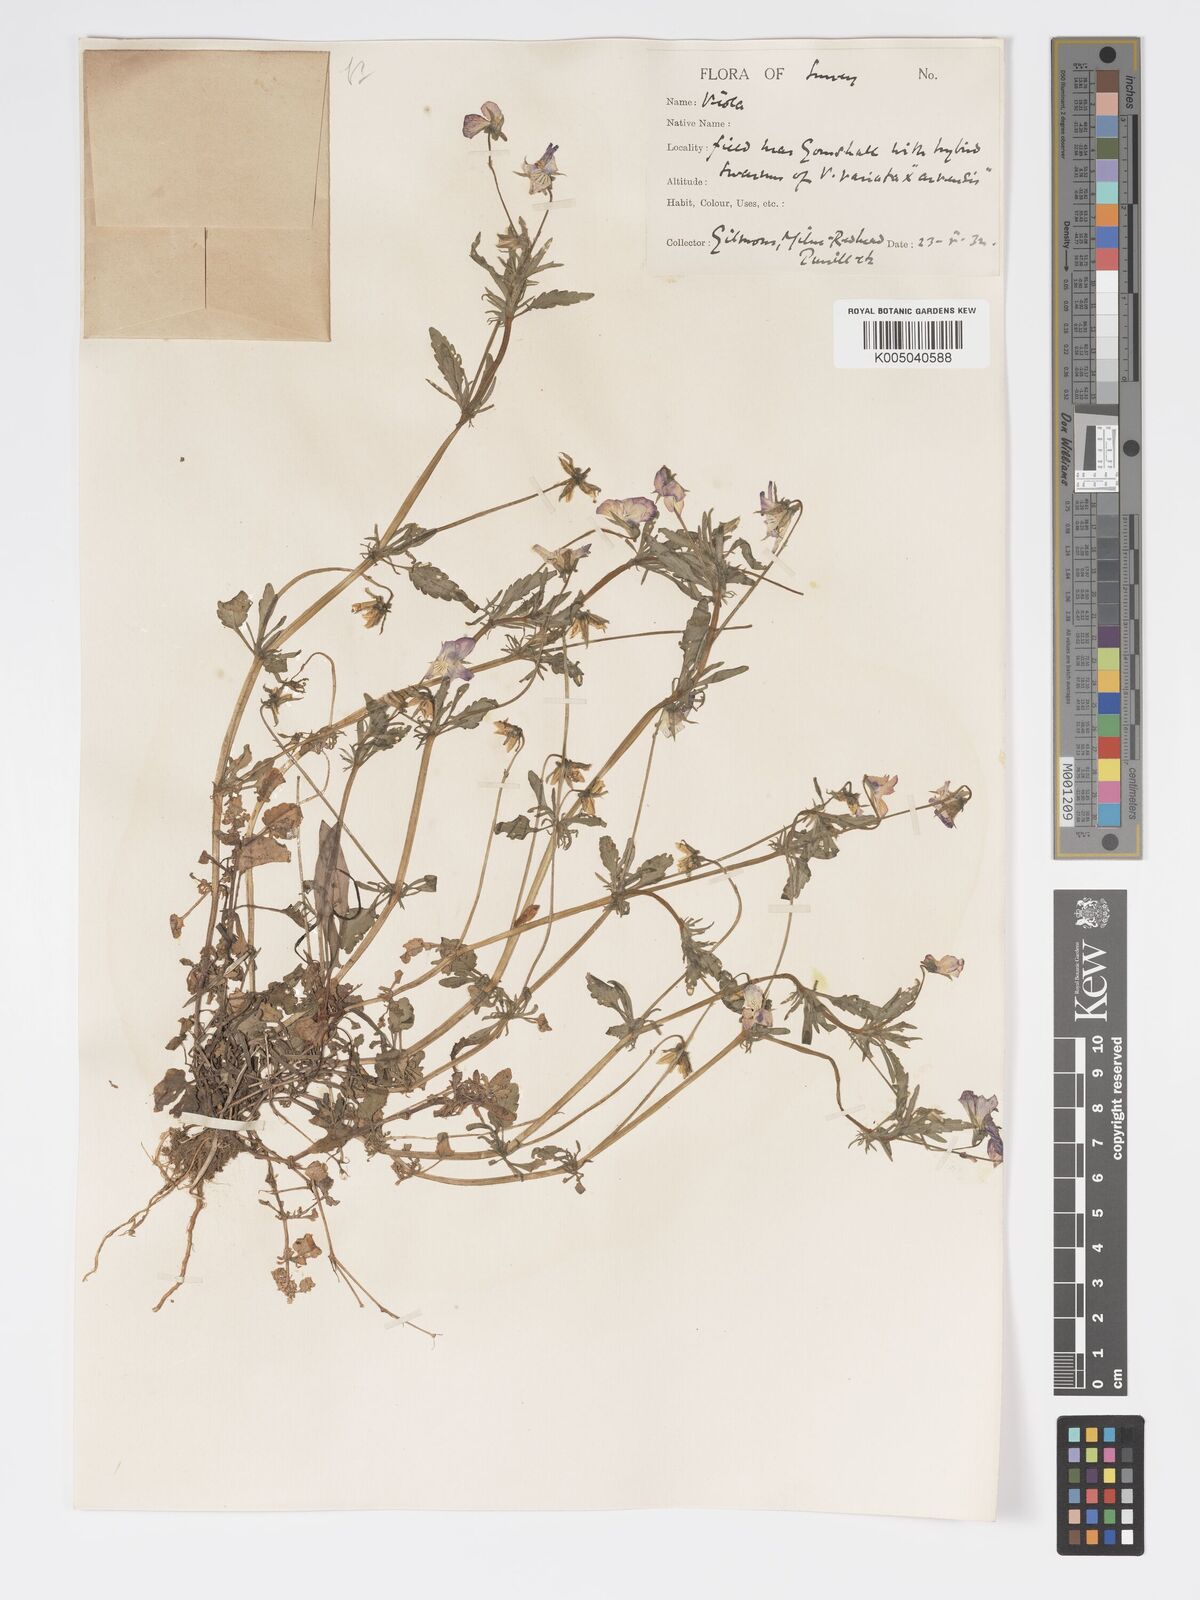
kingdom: Plantae
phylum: Tracheophyta
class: Magnoliopsida
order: Malpighiales
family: Violaceae
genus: Viola
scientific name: Viola
